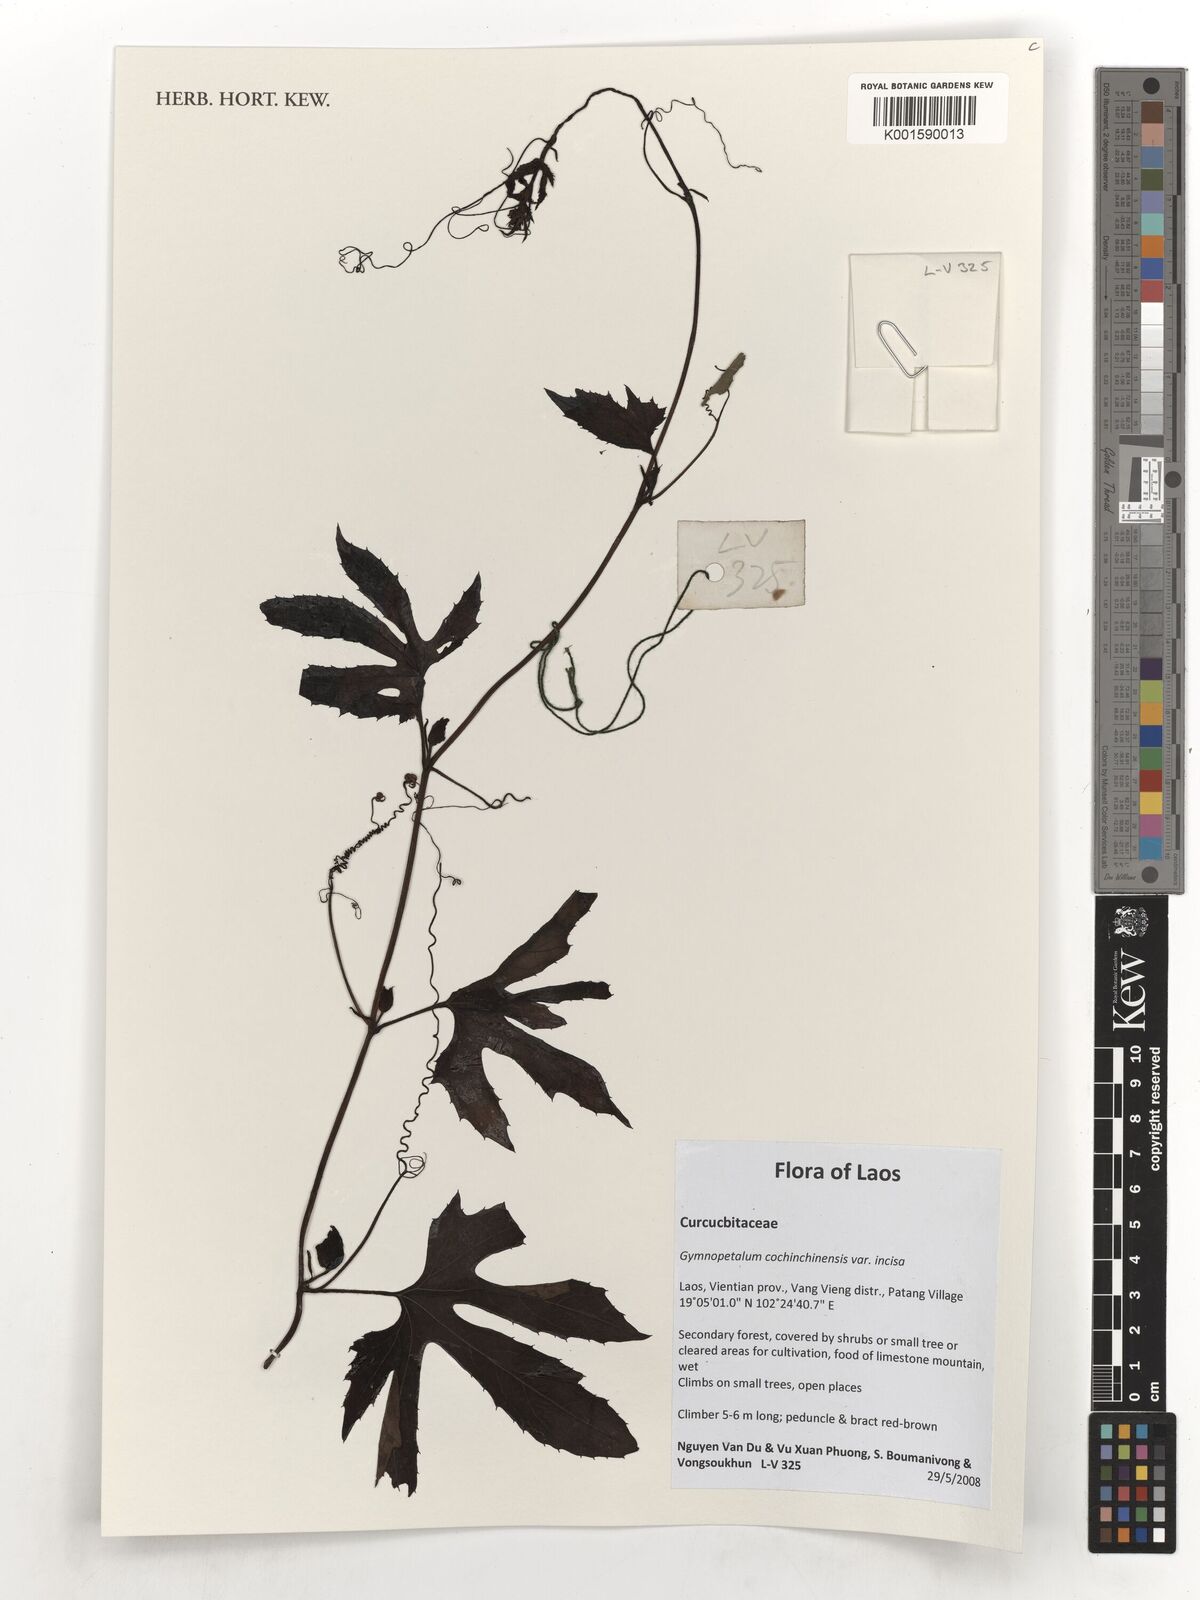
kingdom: Plantae
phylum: Tracheophyta
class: Magnoliopsida
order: Cucurbitales
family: Cucurbitaceae
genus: Trichosanthes
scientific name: Trichosanthes cucumerina
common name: Snakegourd
